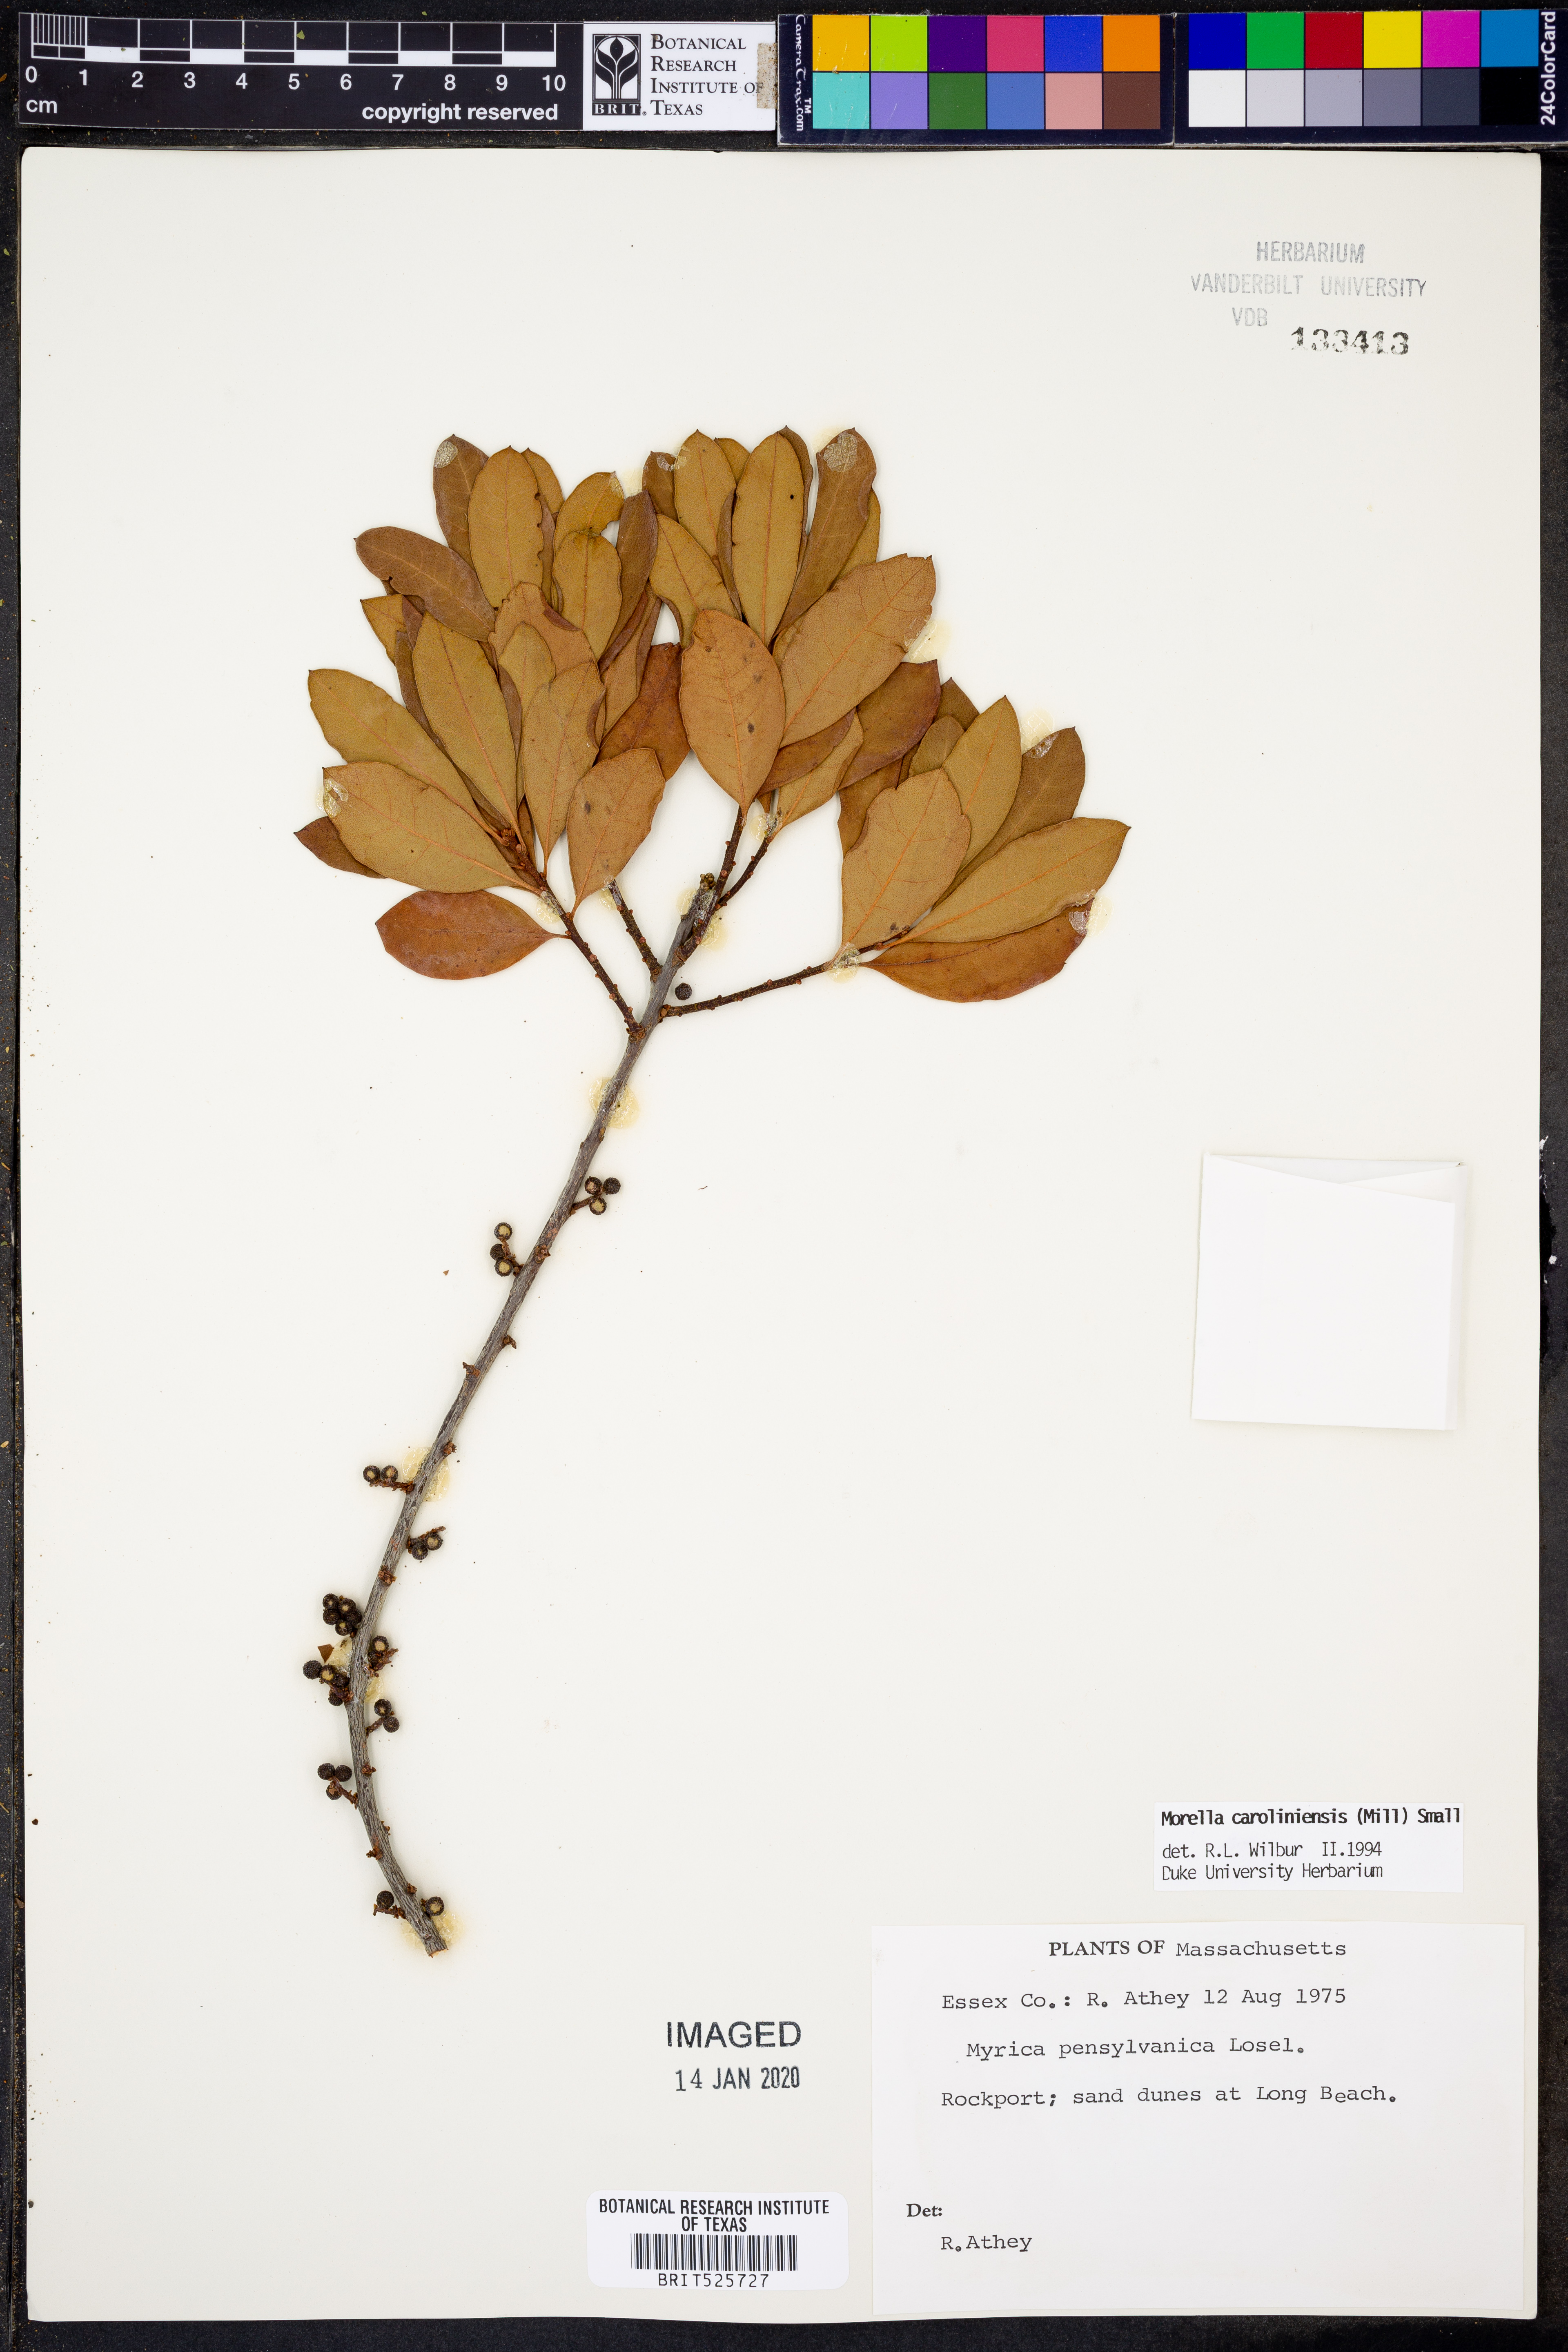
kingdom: Plantae
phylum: Tracheophyta
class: Magnoliopsida
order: Fagales
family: Myricaceae
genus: Morella
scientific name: Morella caroliniensis
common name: Evergreen bayberry
